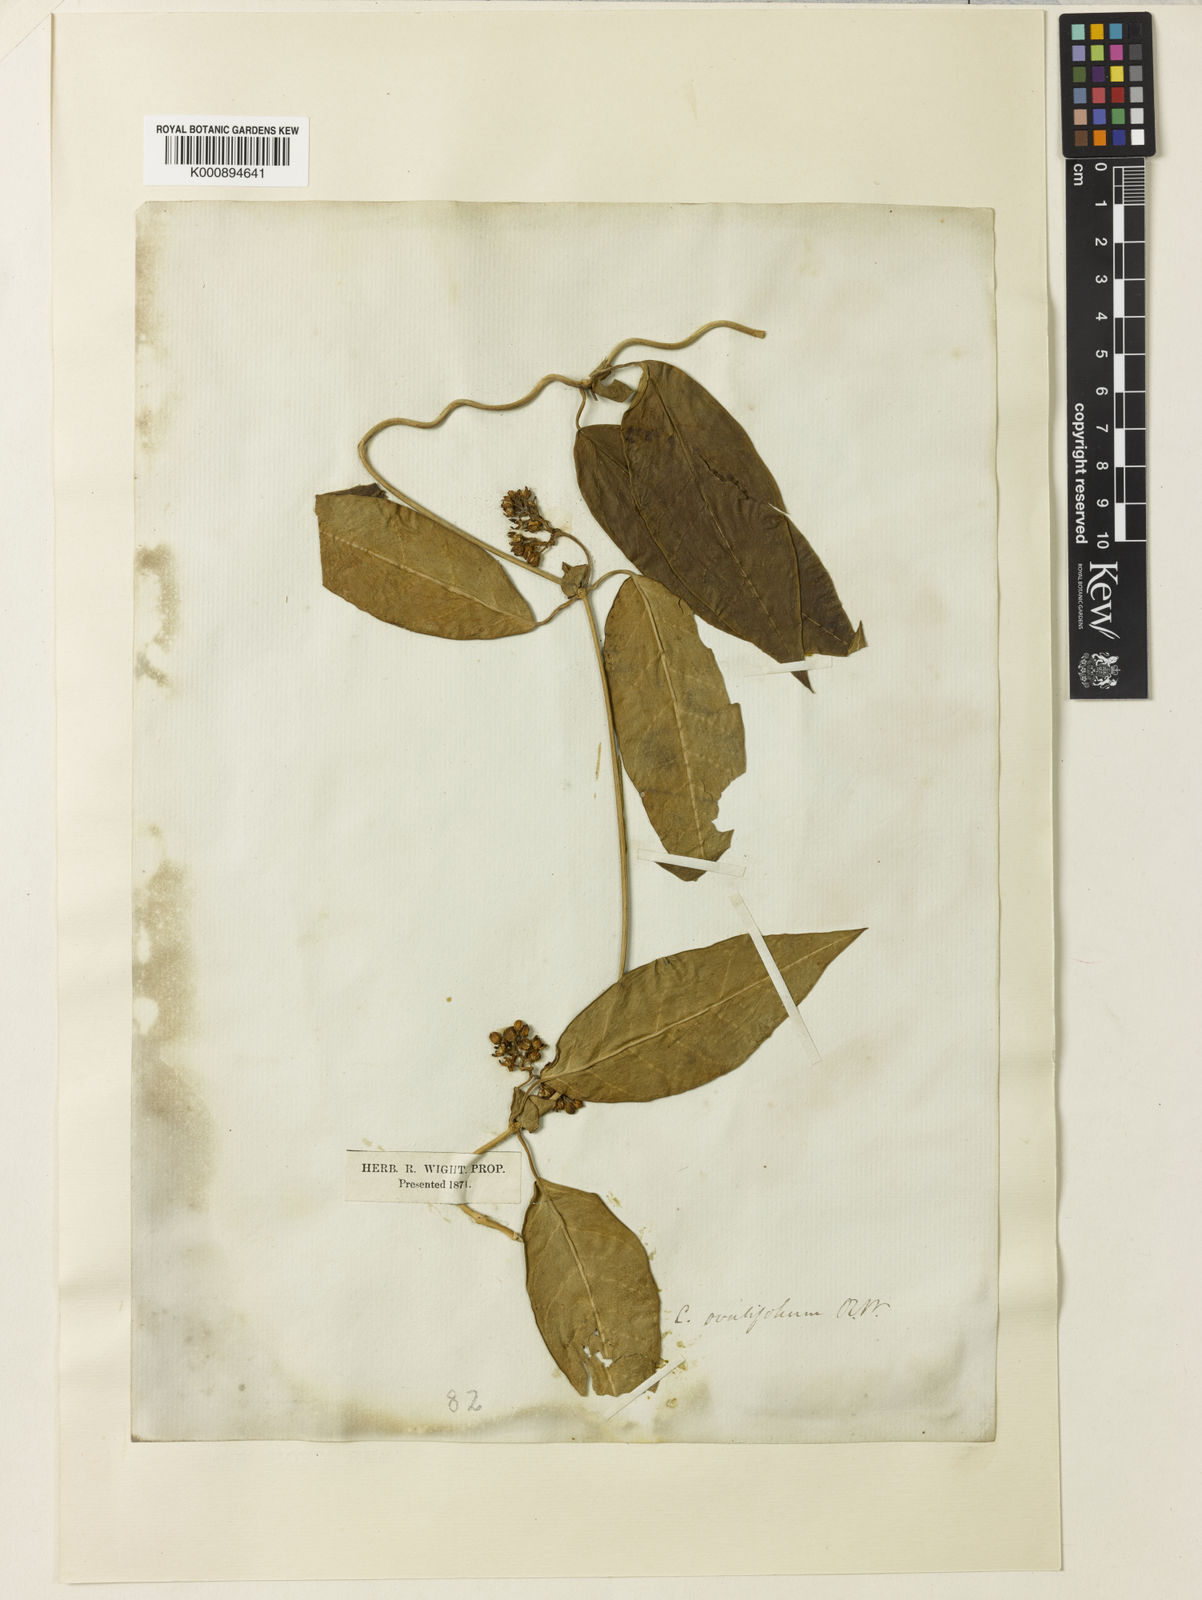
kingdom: Plantae
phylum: Tracheophyta
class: Magnoliopsida
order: Gentianales
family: Apocynaceae
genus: Cynanchum
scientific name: Cynanchum ovalifolium
